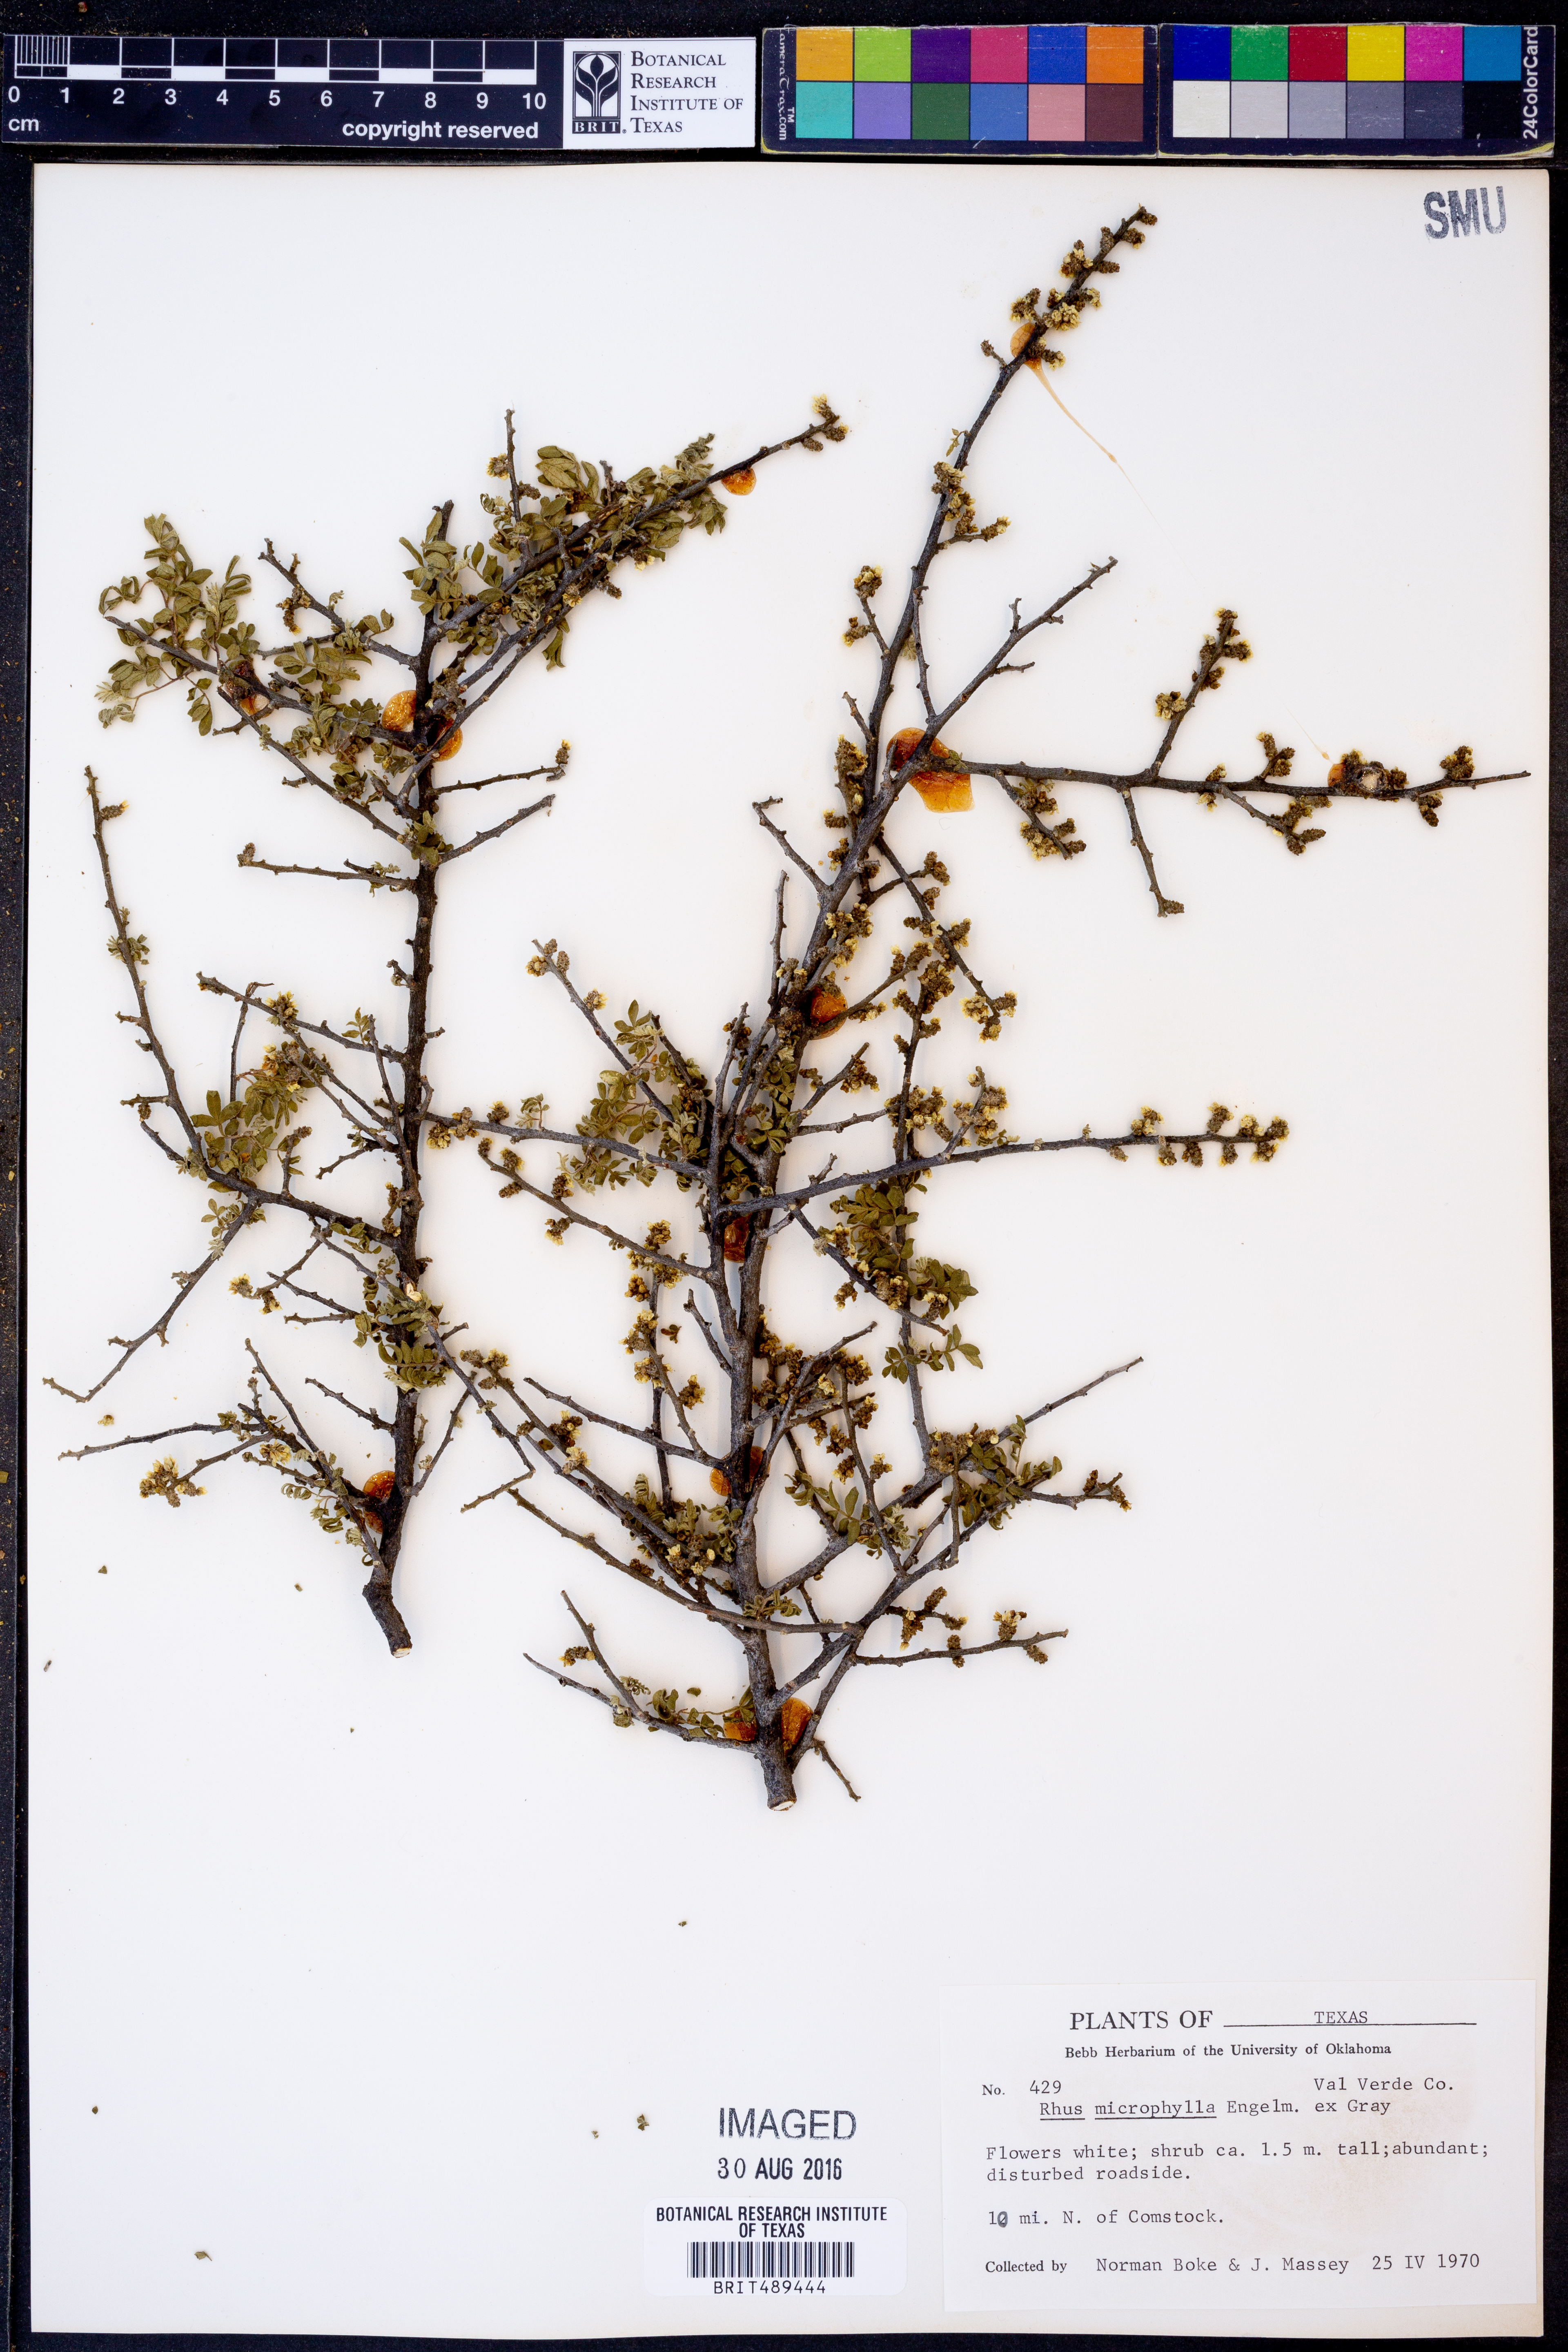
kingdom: Plantae
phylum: Tracheophyta
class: Magnoliopsida
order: Sapindales
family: Anacardiaceae
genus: Rhus
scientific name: Rhus microphylla
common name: Desert sumac
